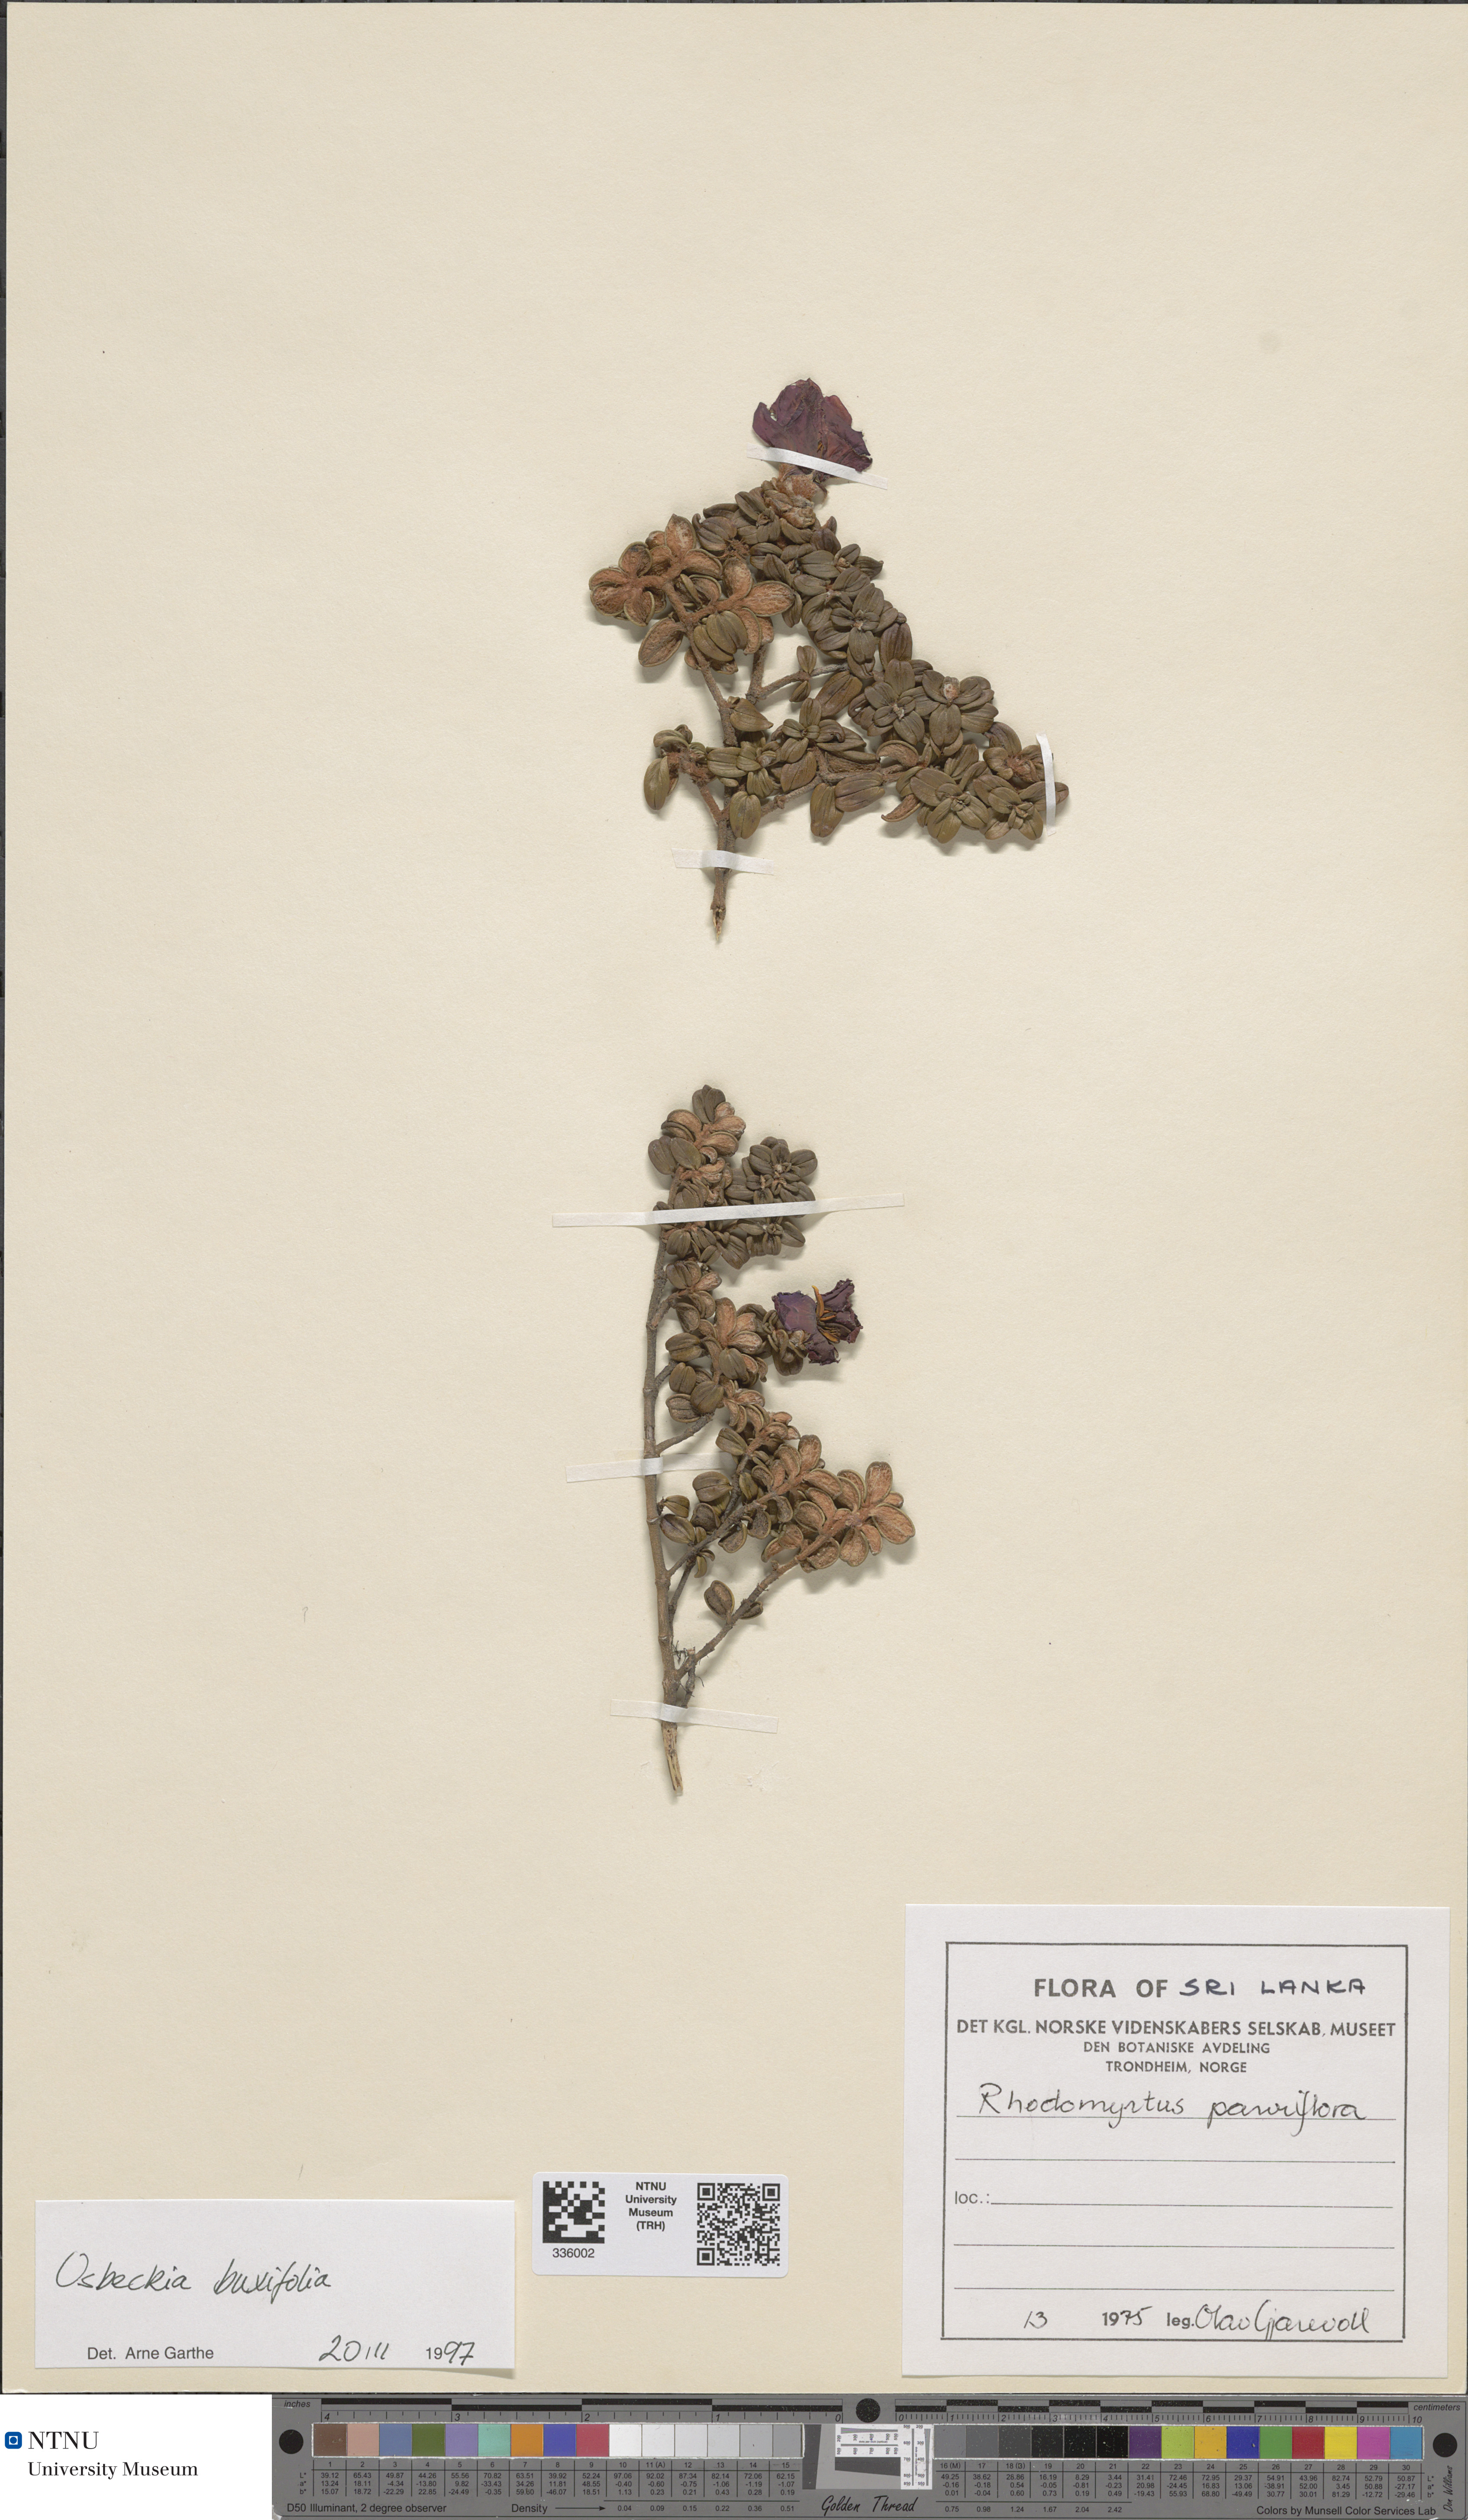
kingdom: Plantae
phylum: Tracheophyta
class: Magnoliopsida
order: Myrtales
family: Melastomataceae
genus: Osbeckia
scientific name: Osbeckia buxifolia
